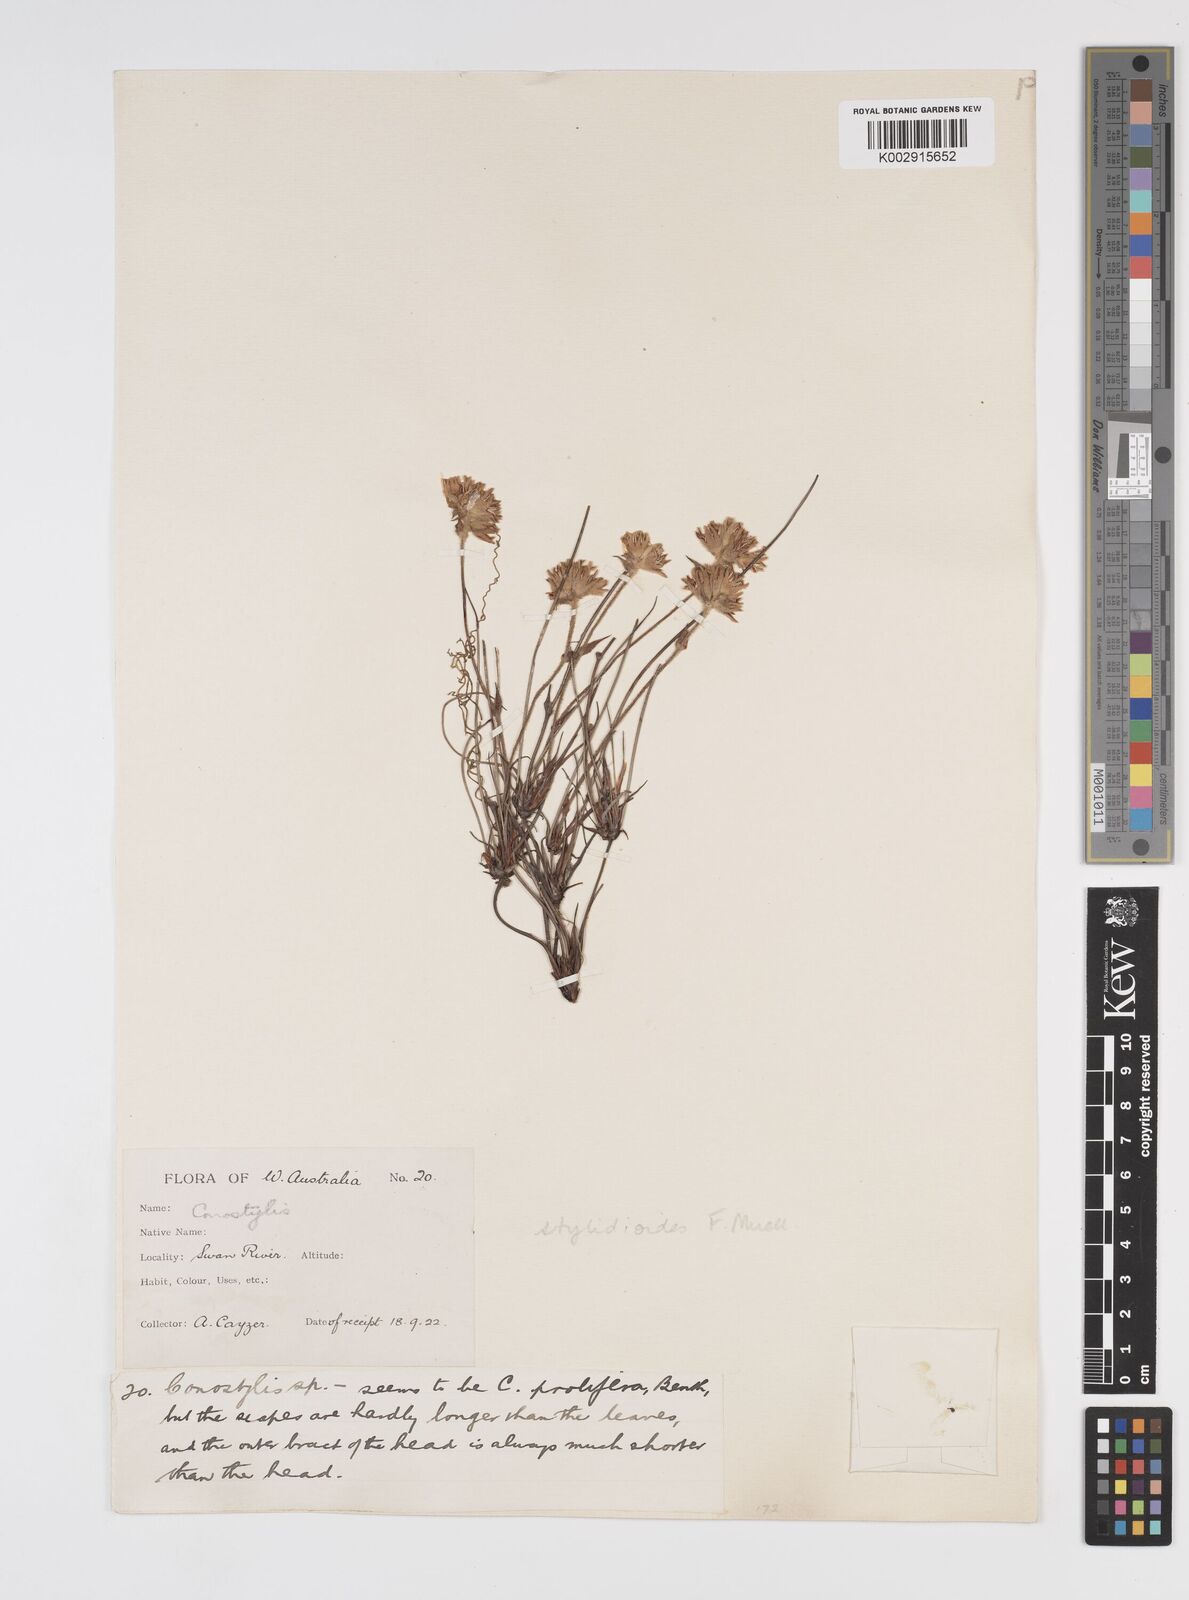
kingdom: Plantae
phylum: Tracheophyta
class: Liliopsida
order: Commelinales
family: Haemodoraceae
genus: Conostylis
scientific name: Conostylis stylidioides
